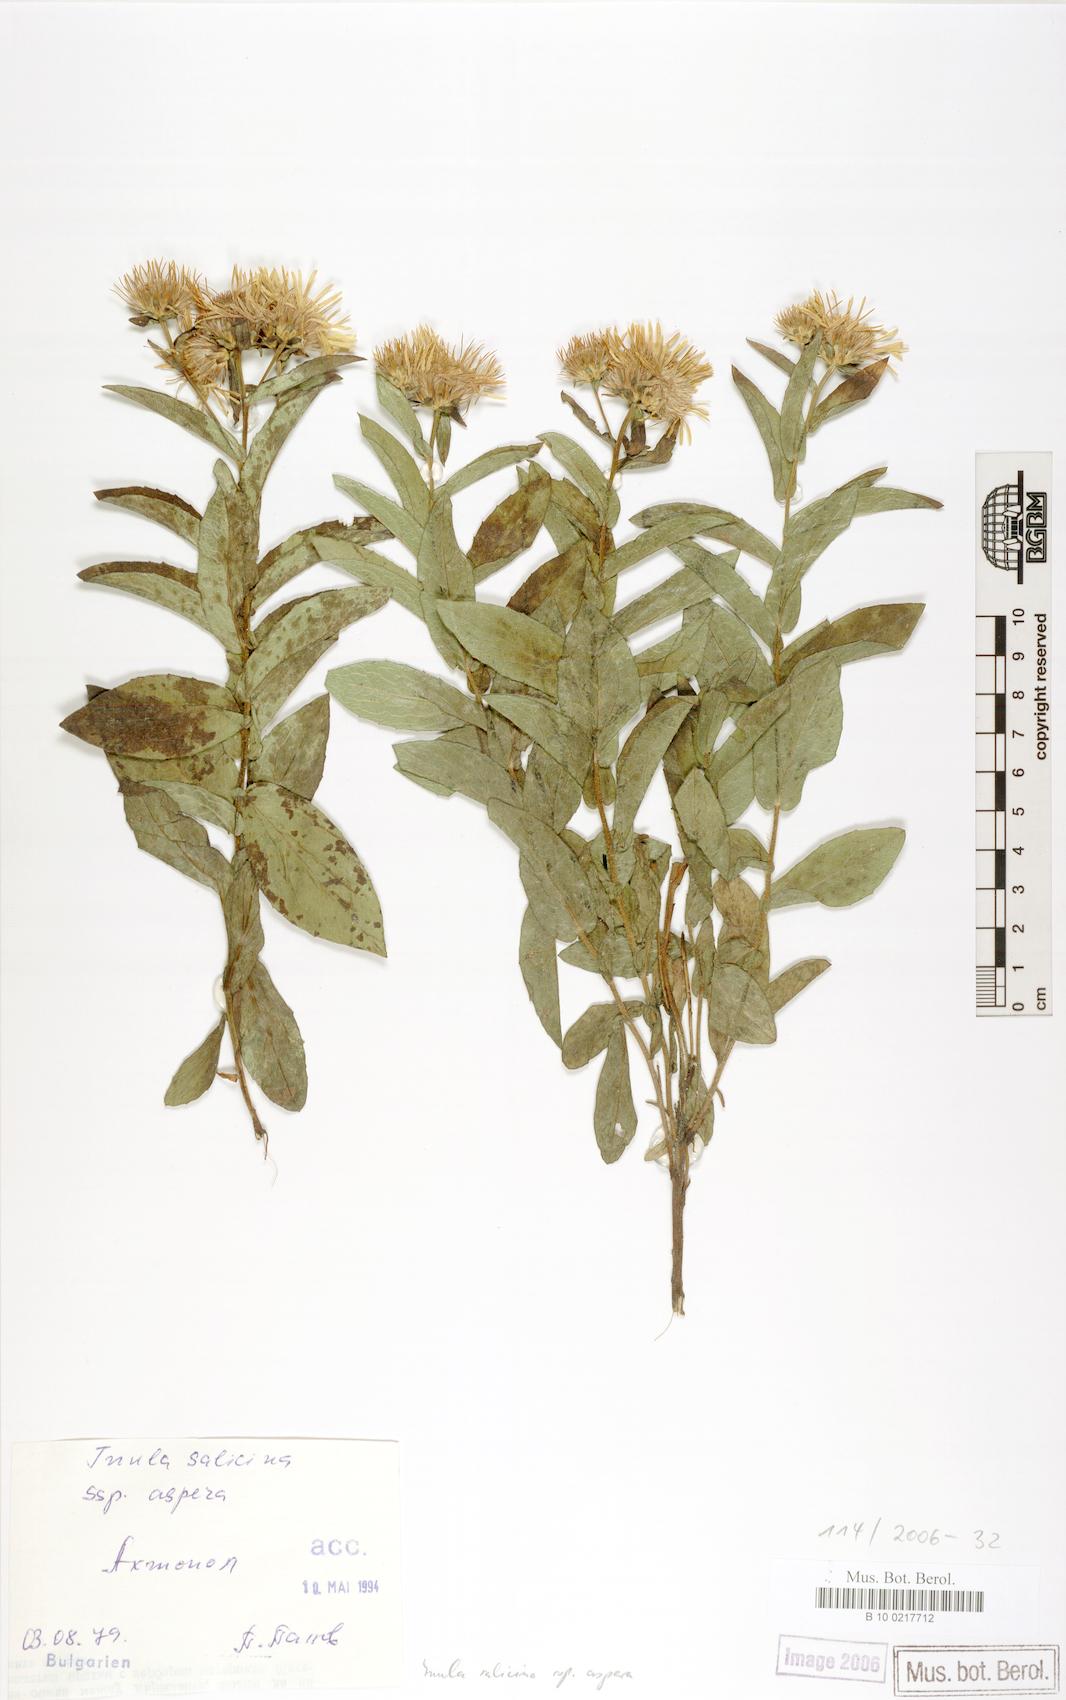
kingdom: Plantae
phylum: Tracheophyta
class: Magnoliopsida
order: Asterales
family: Asteraceae
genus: Pentanema
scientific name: Pentanema salicinum
